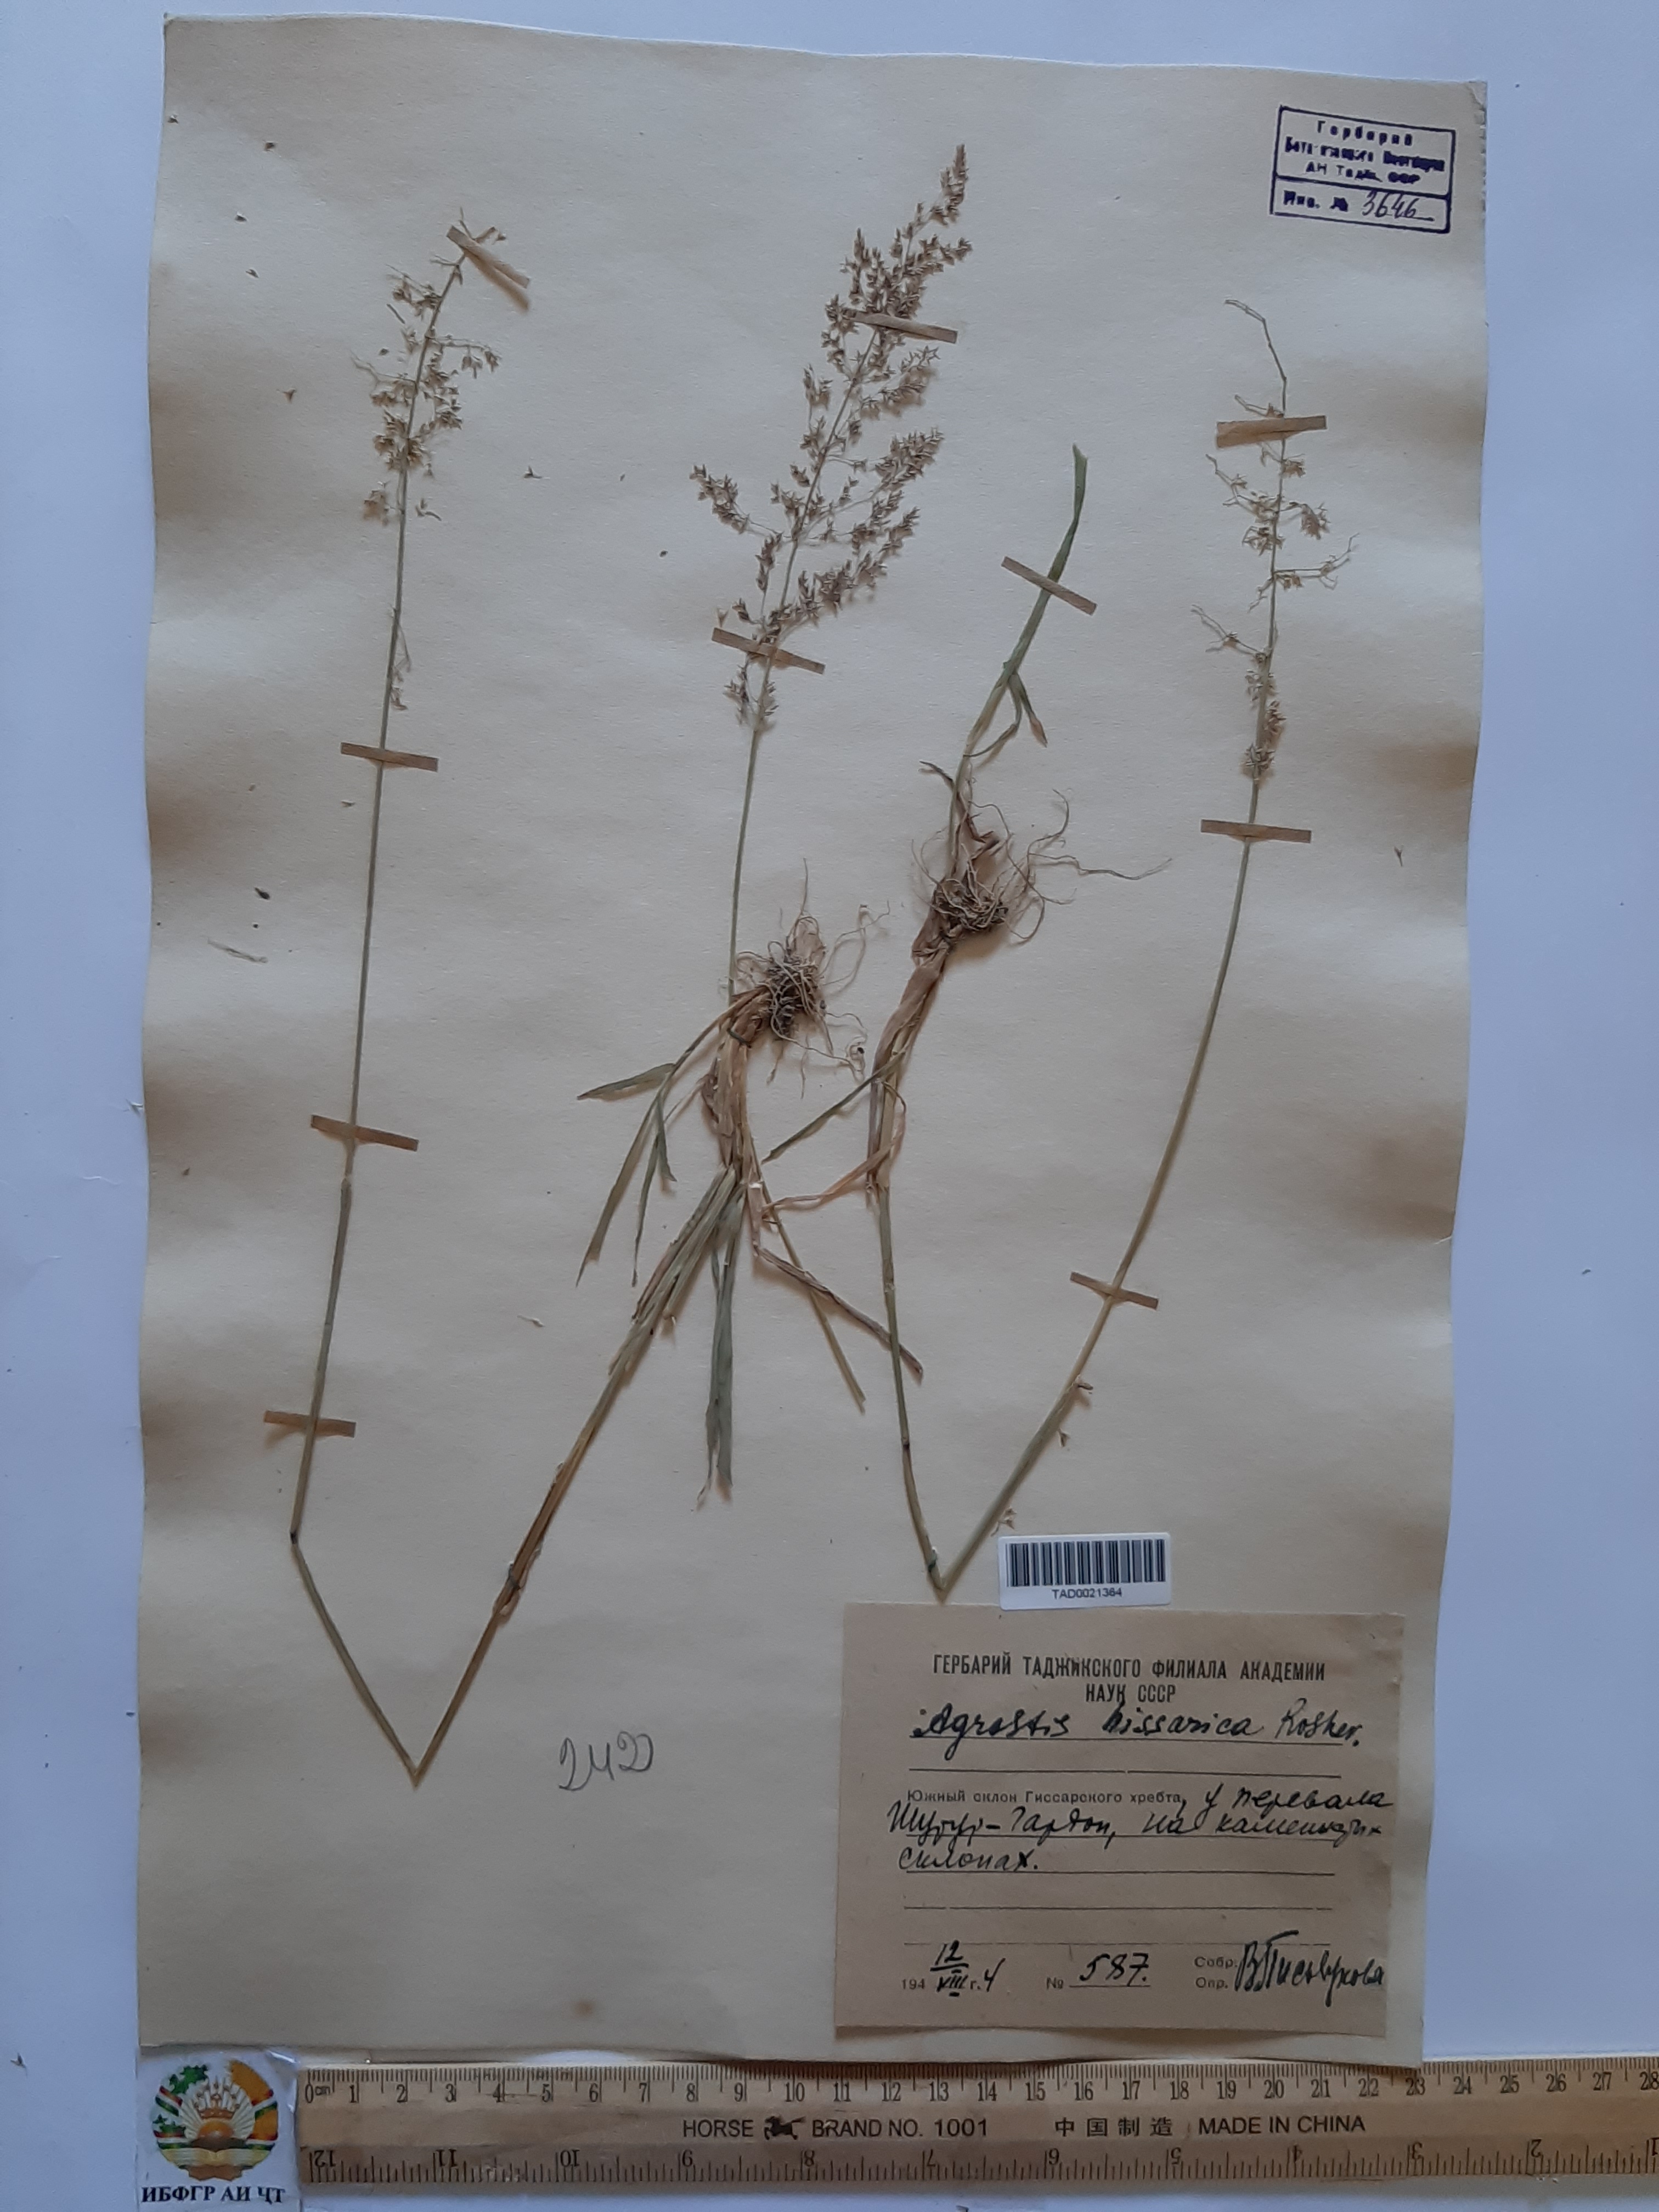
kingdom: Plantae
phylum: Tracheophyta
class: Liliopsida
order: Poales
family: Poaceae
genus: Polypogon
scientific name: Polypogon hissaricus
